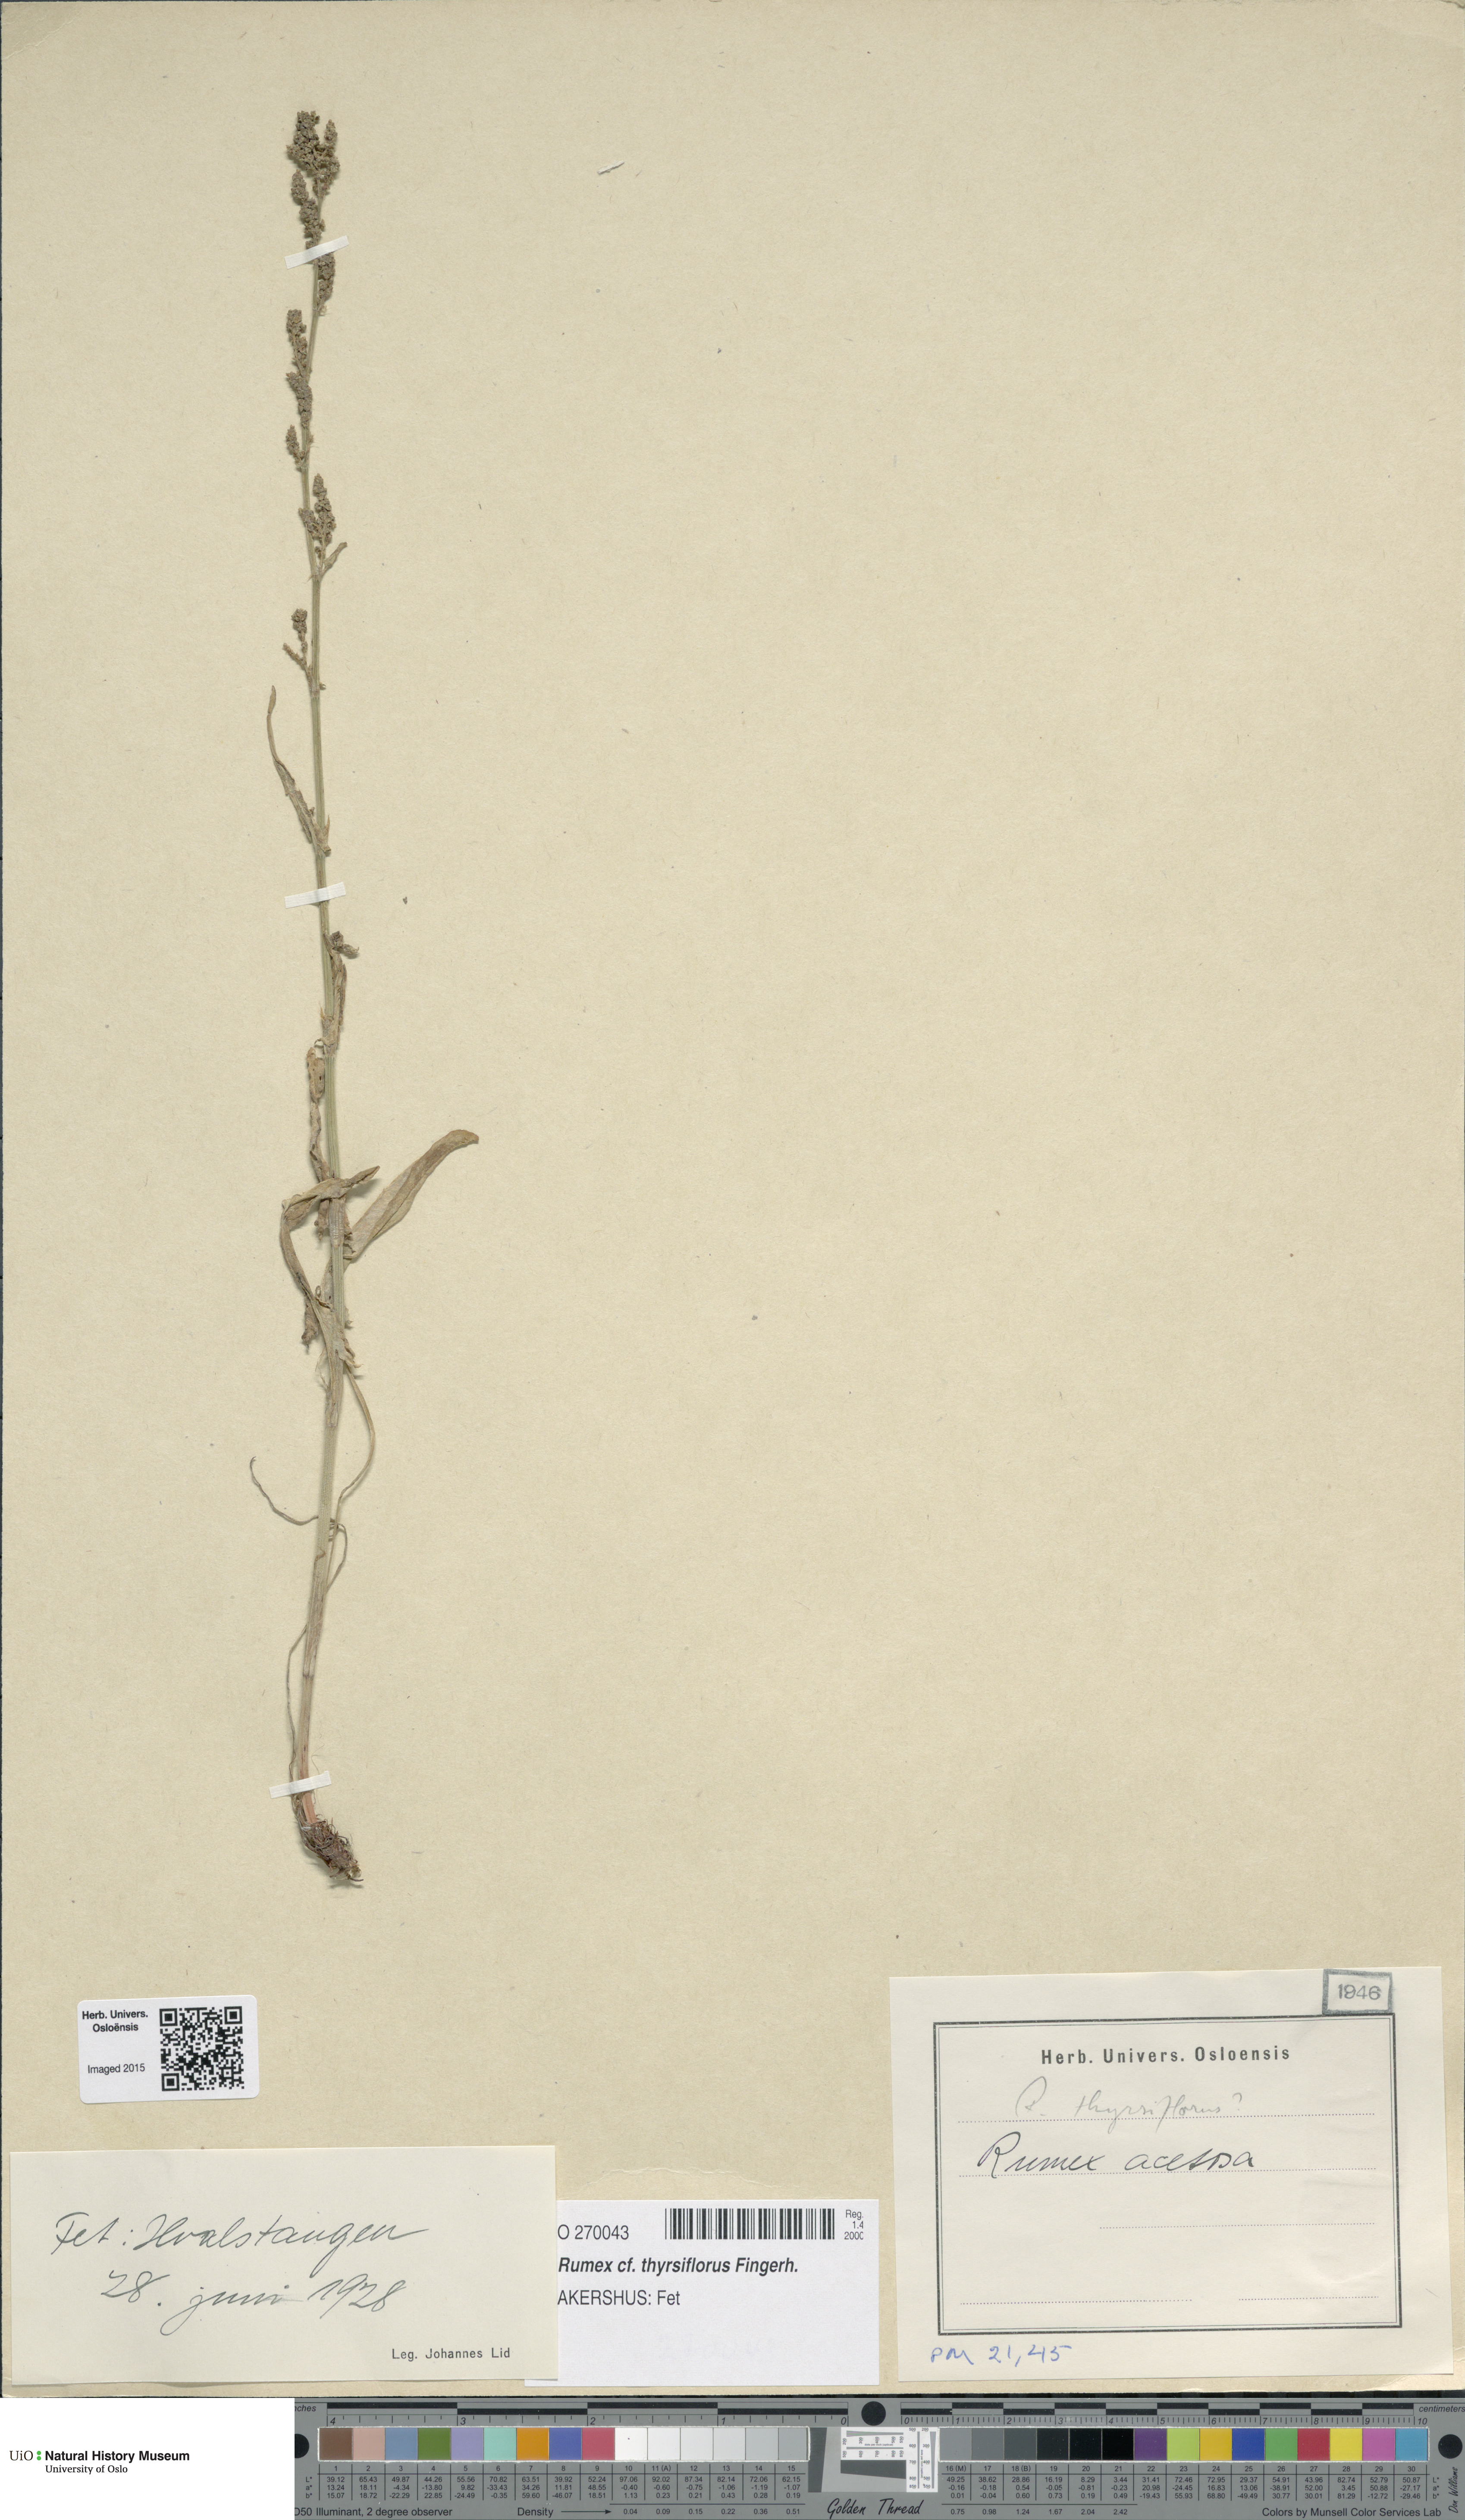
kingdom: Plantae
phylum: Tracheophyta
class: Magnoliopsida
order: Caryophyllales
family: Polygonaceae
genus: Rumex
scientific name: Rumex thyrsiflorus
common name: Garden sorrel
